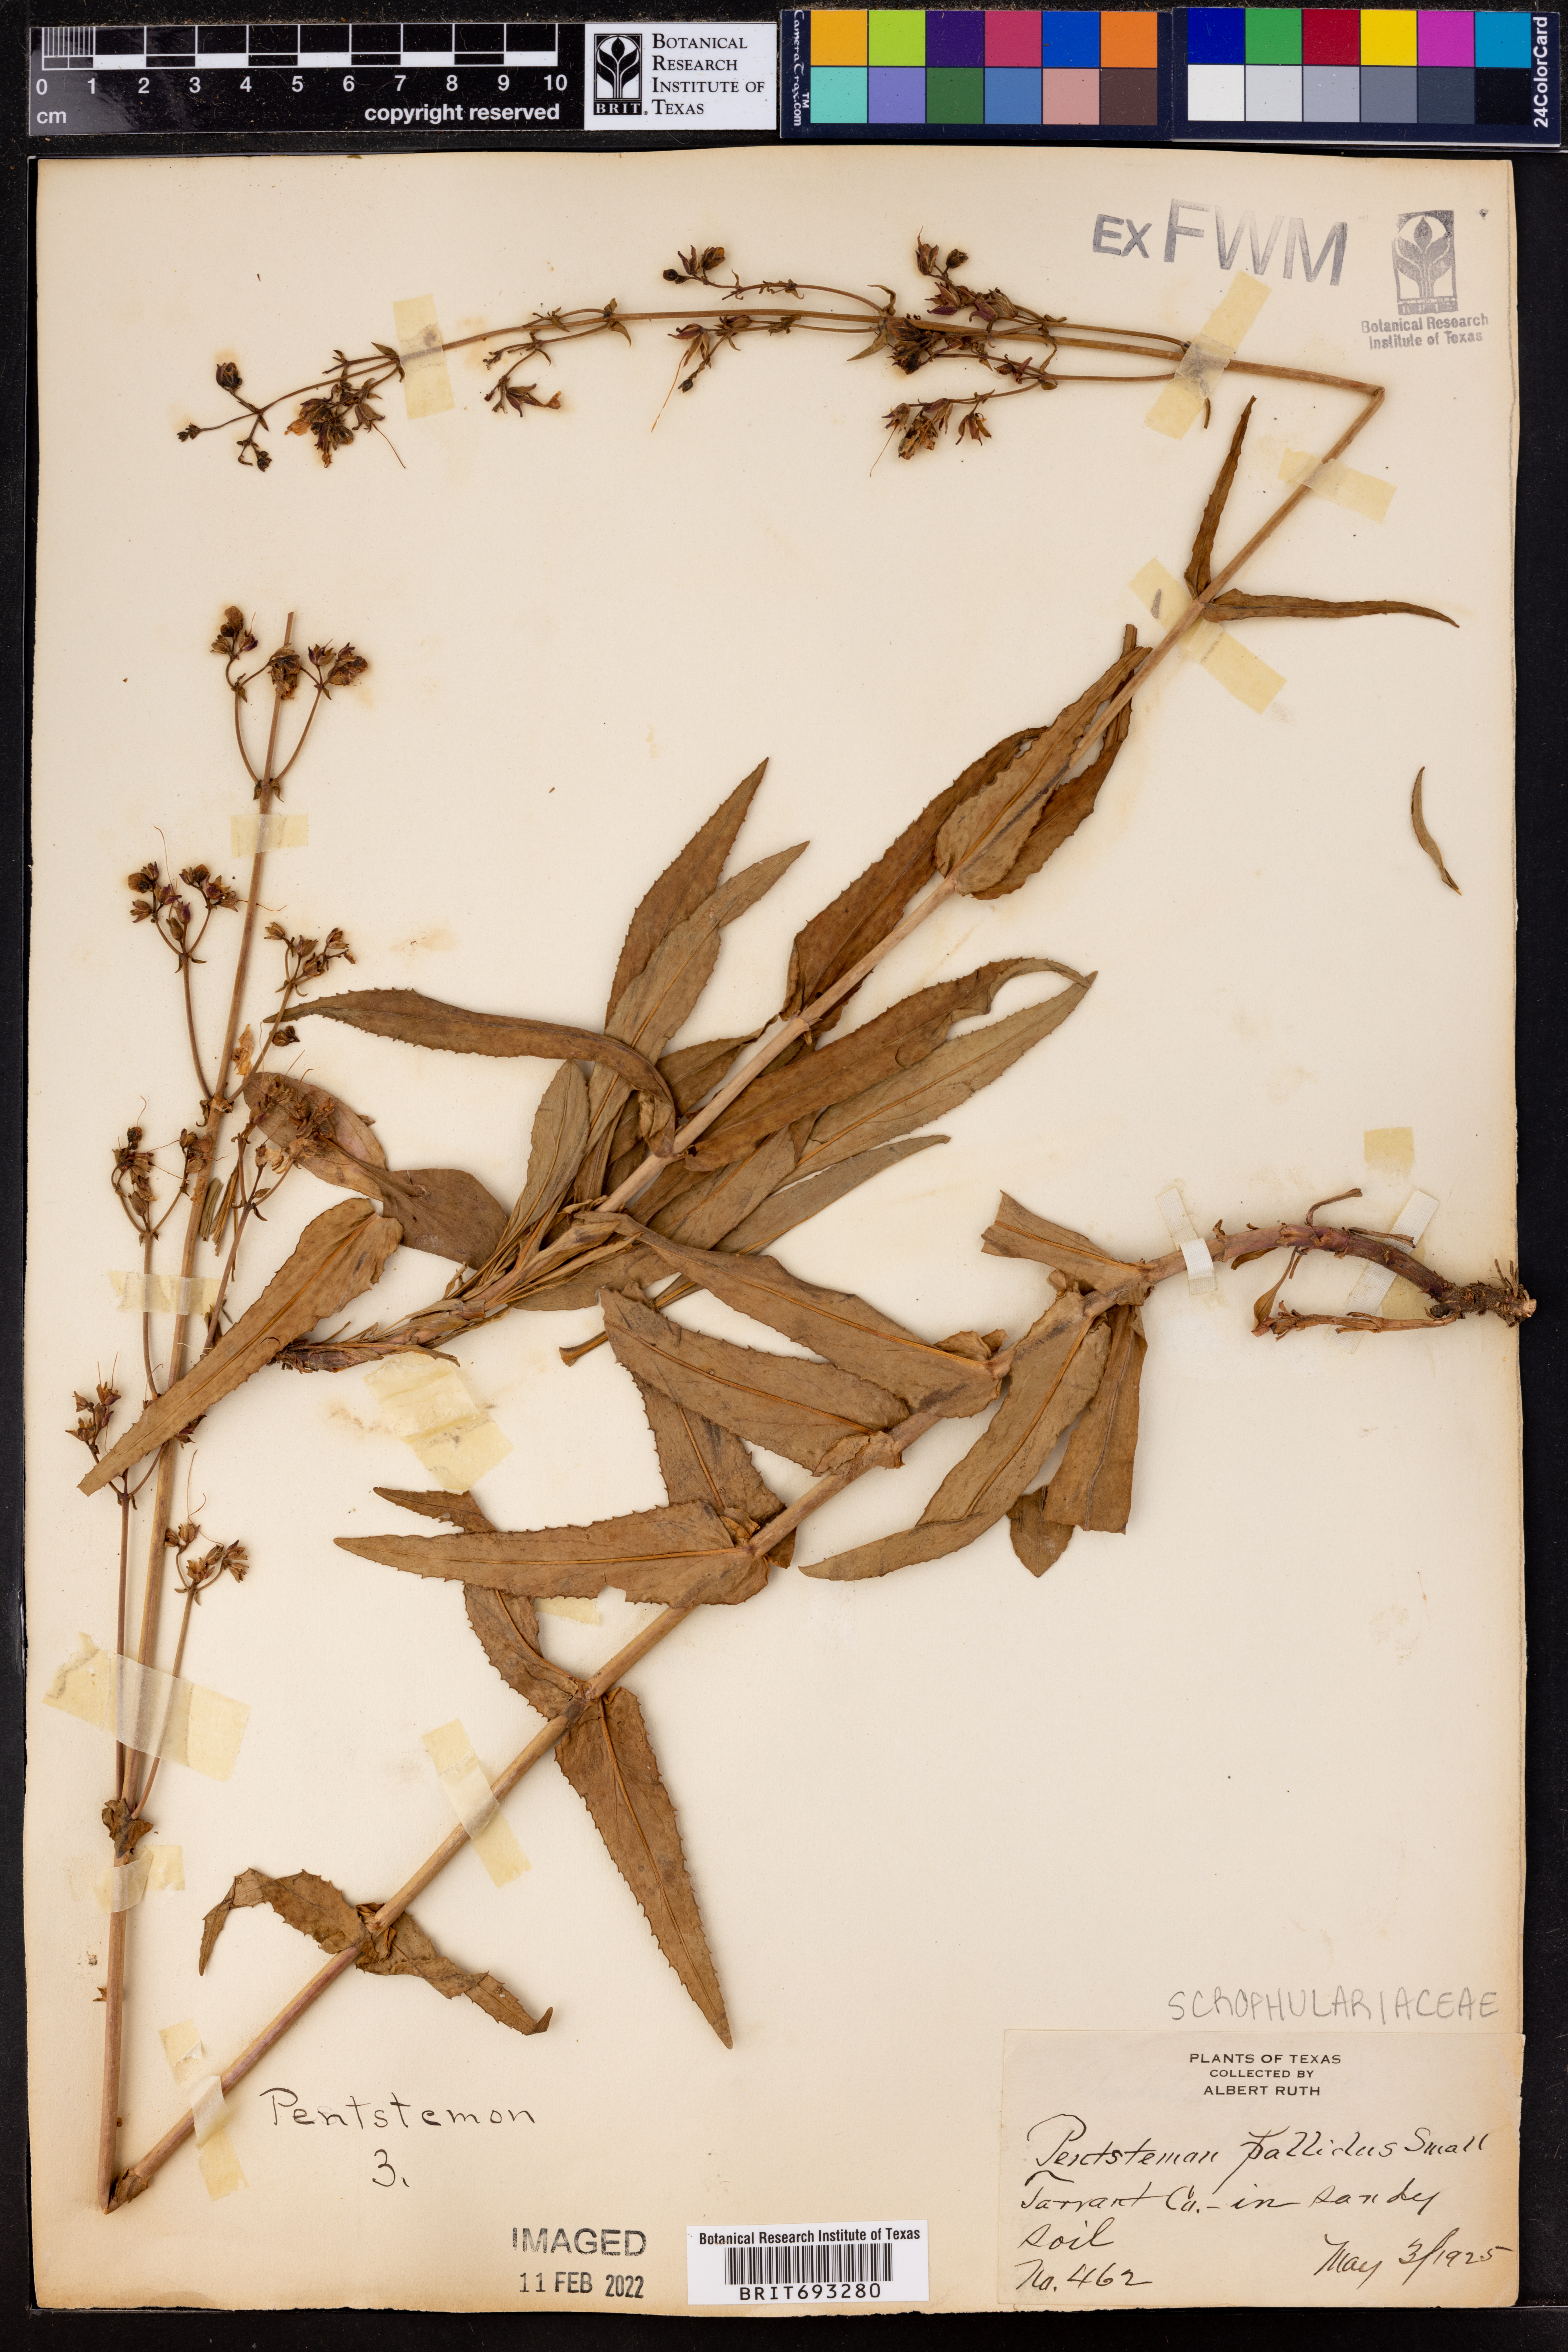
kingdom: Plantae
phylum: Tracheophyta
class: Magnoliopsida
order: Lamiales
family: Plantaginaceae
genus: Penstemon
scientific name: Penstemon pallidus
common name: Pale beardtongue
